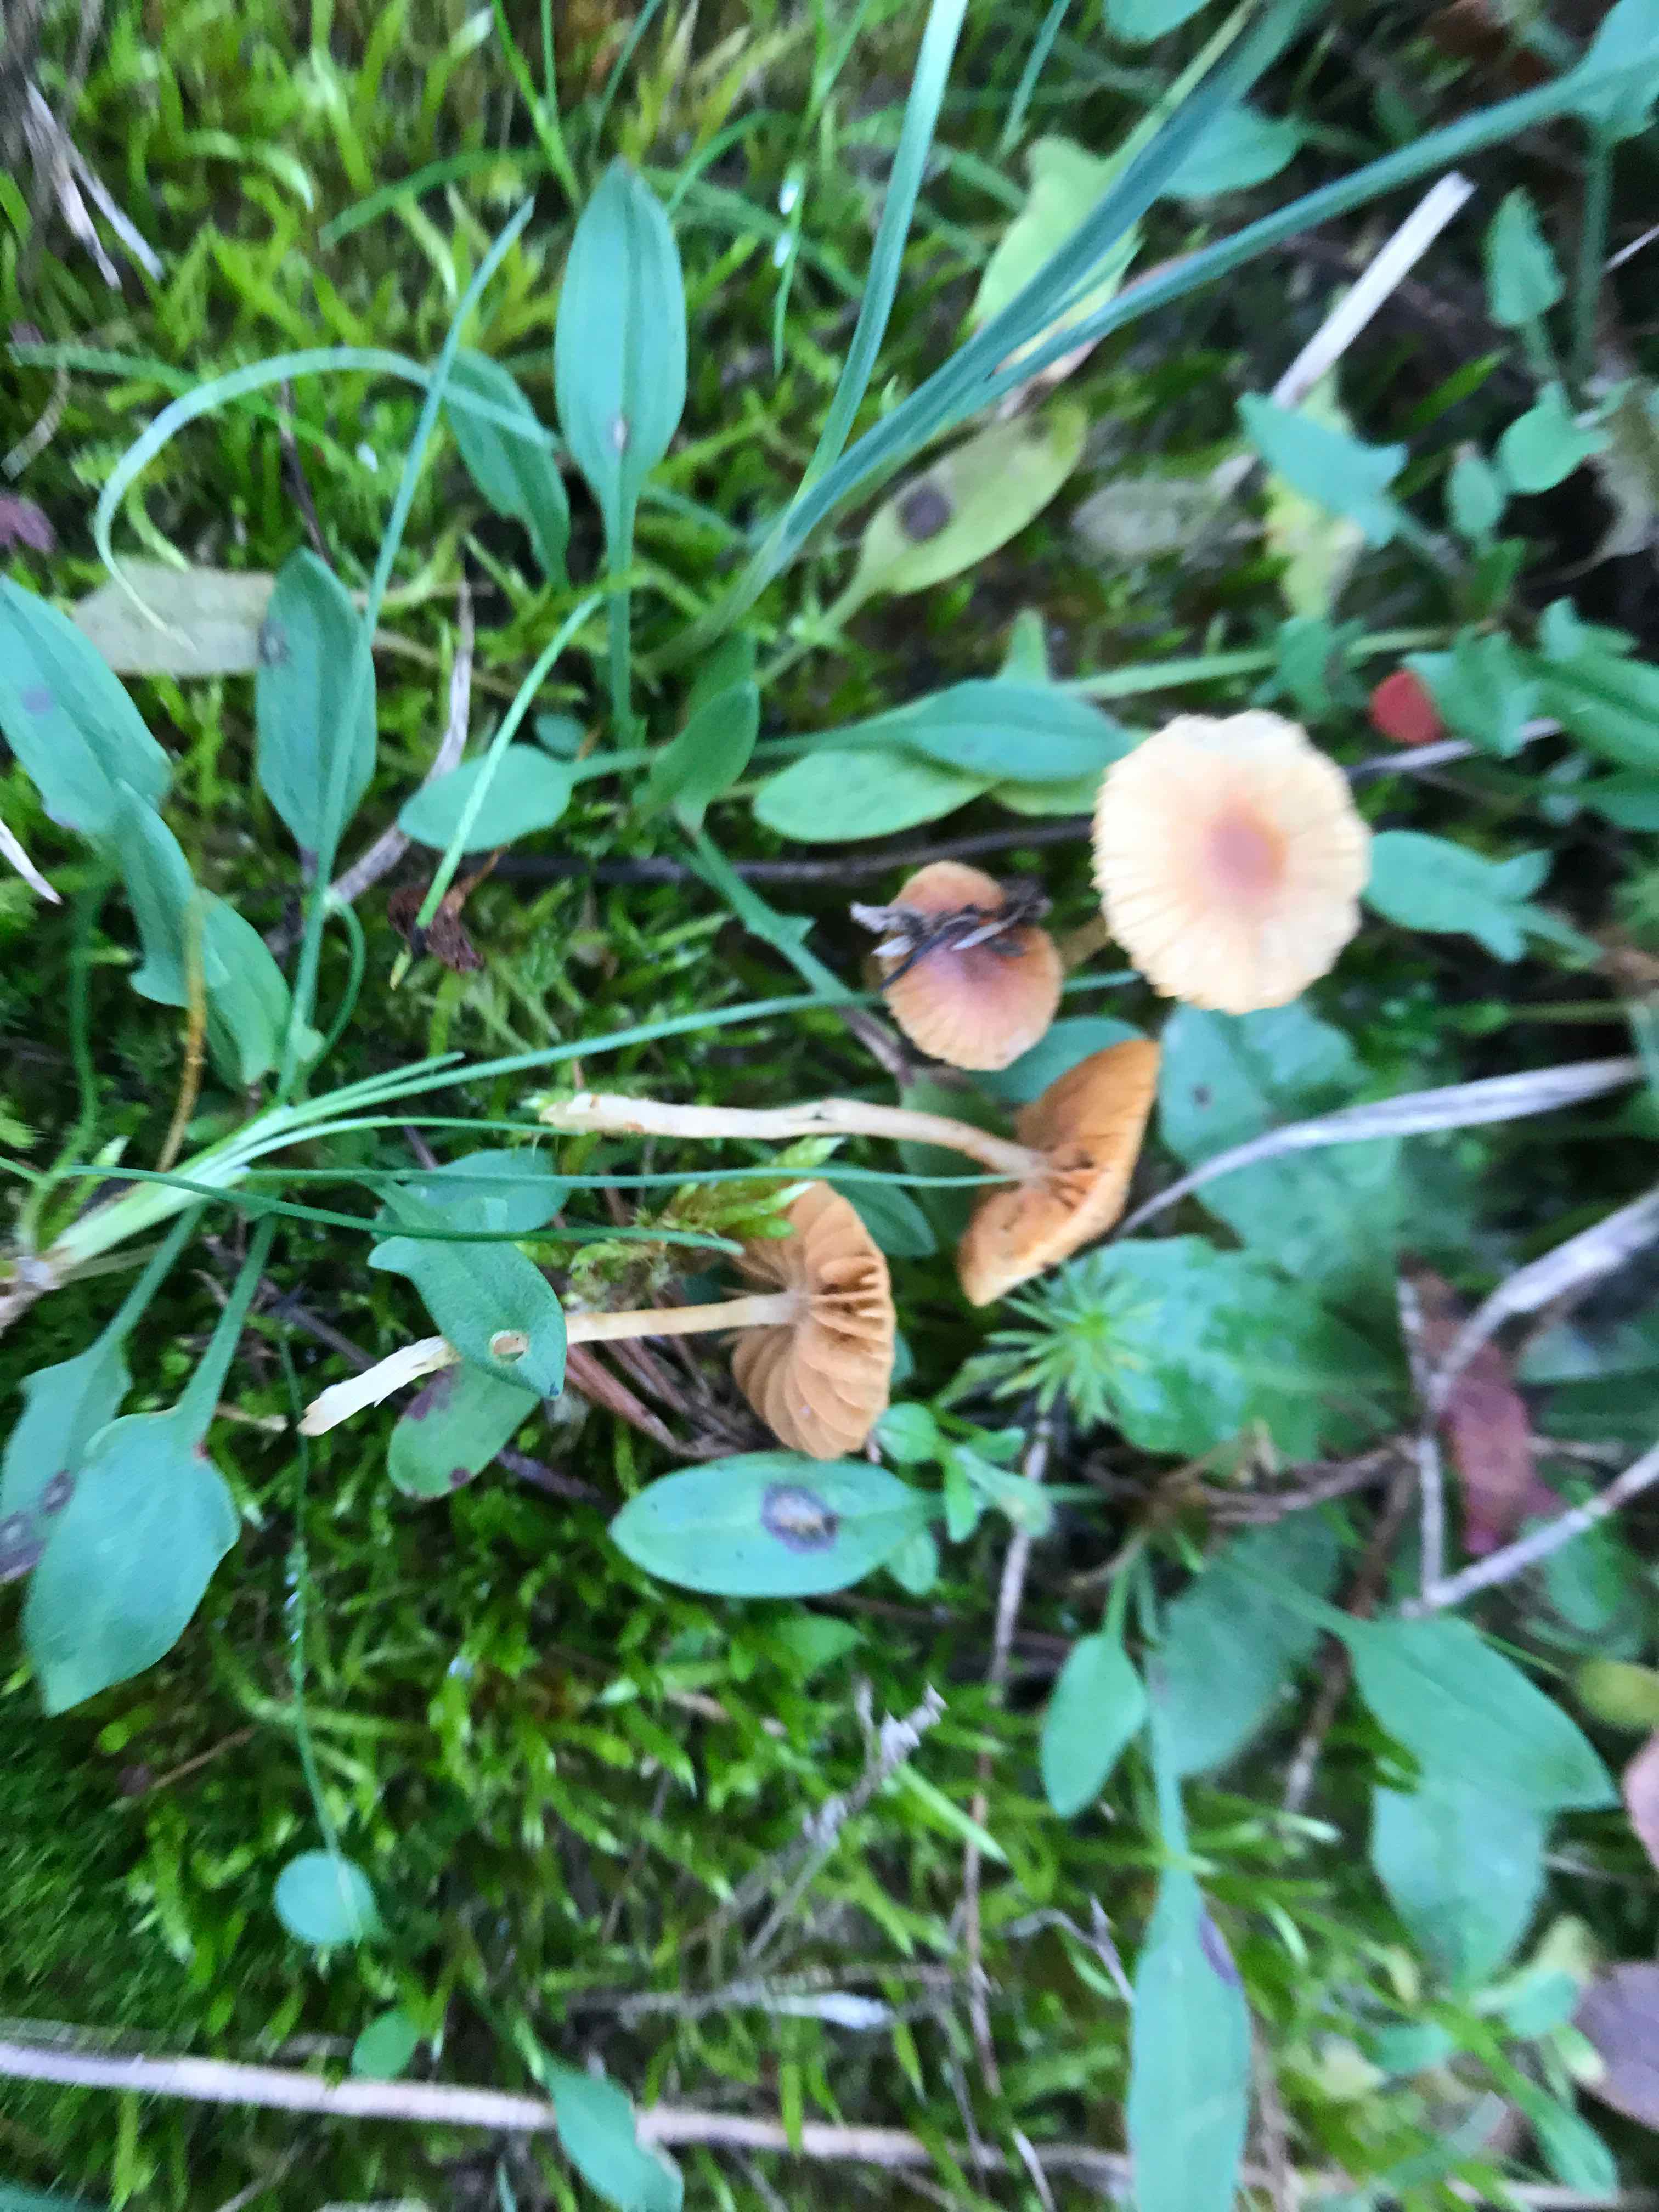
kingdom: Fungi
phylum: Basidiomycota
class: Agaricomycetes
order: Agaricales
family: Hymenogastraceae
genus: Galerina
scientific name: Galerina
